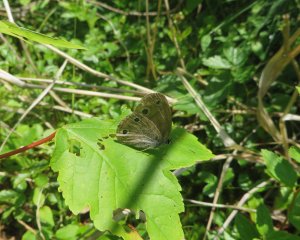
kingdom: Animalia
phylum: Arthropoda
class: Insecta
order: Lepidoptera
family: Nymphalidae
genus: Euptychia
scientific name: Euptychia cymela
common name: Little Wood Satyr
